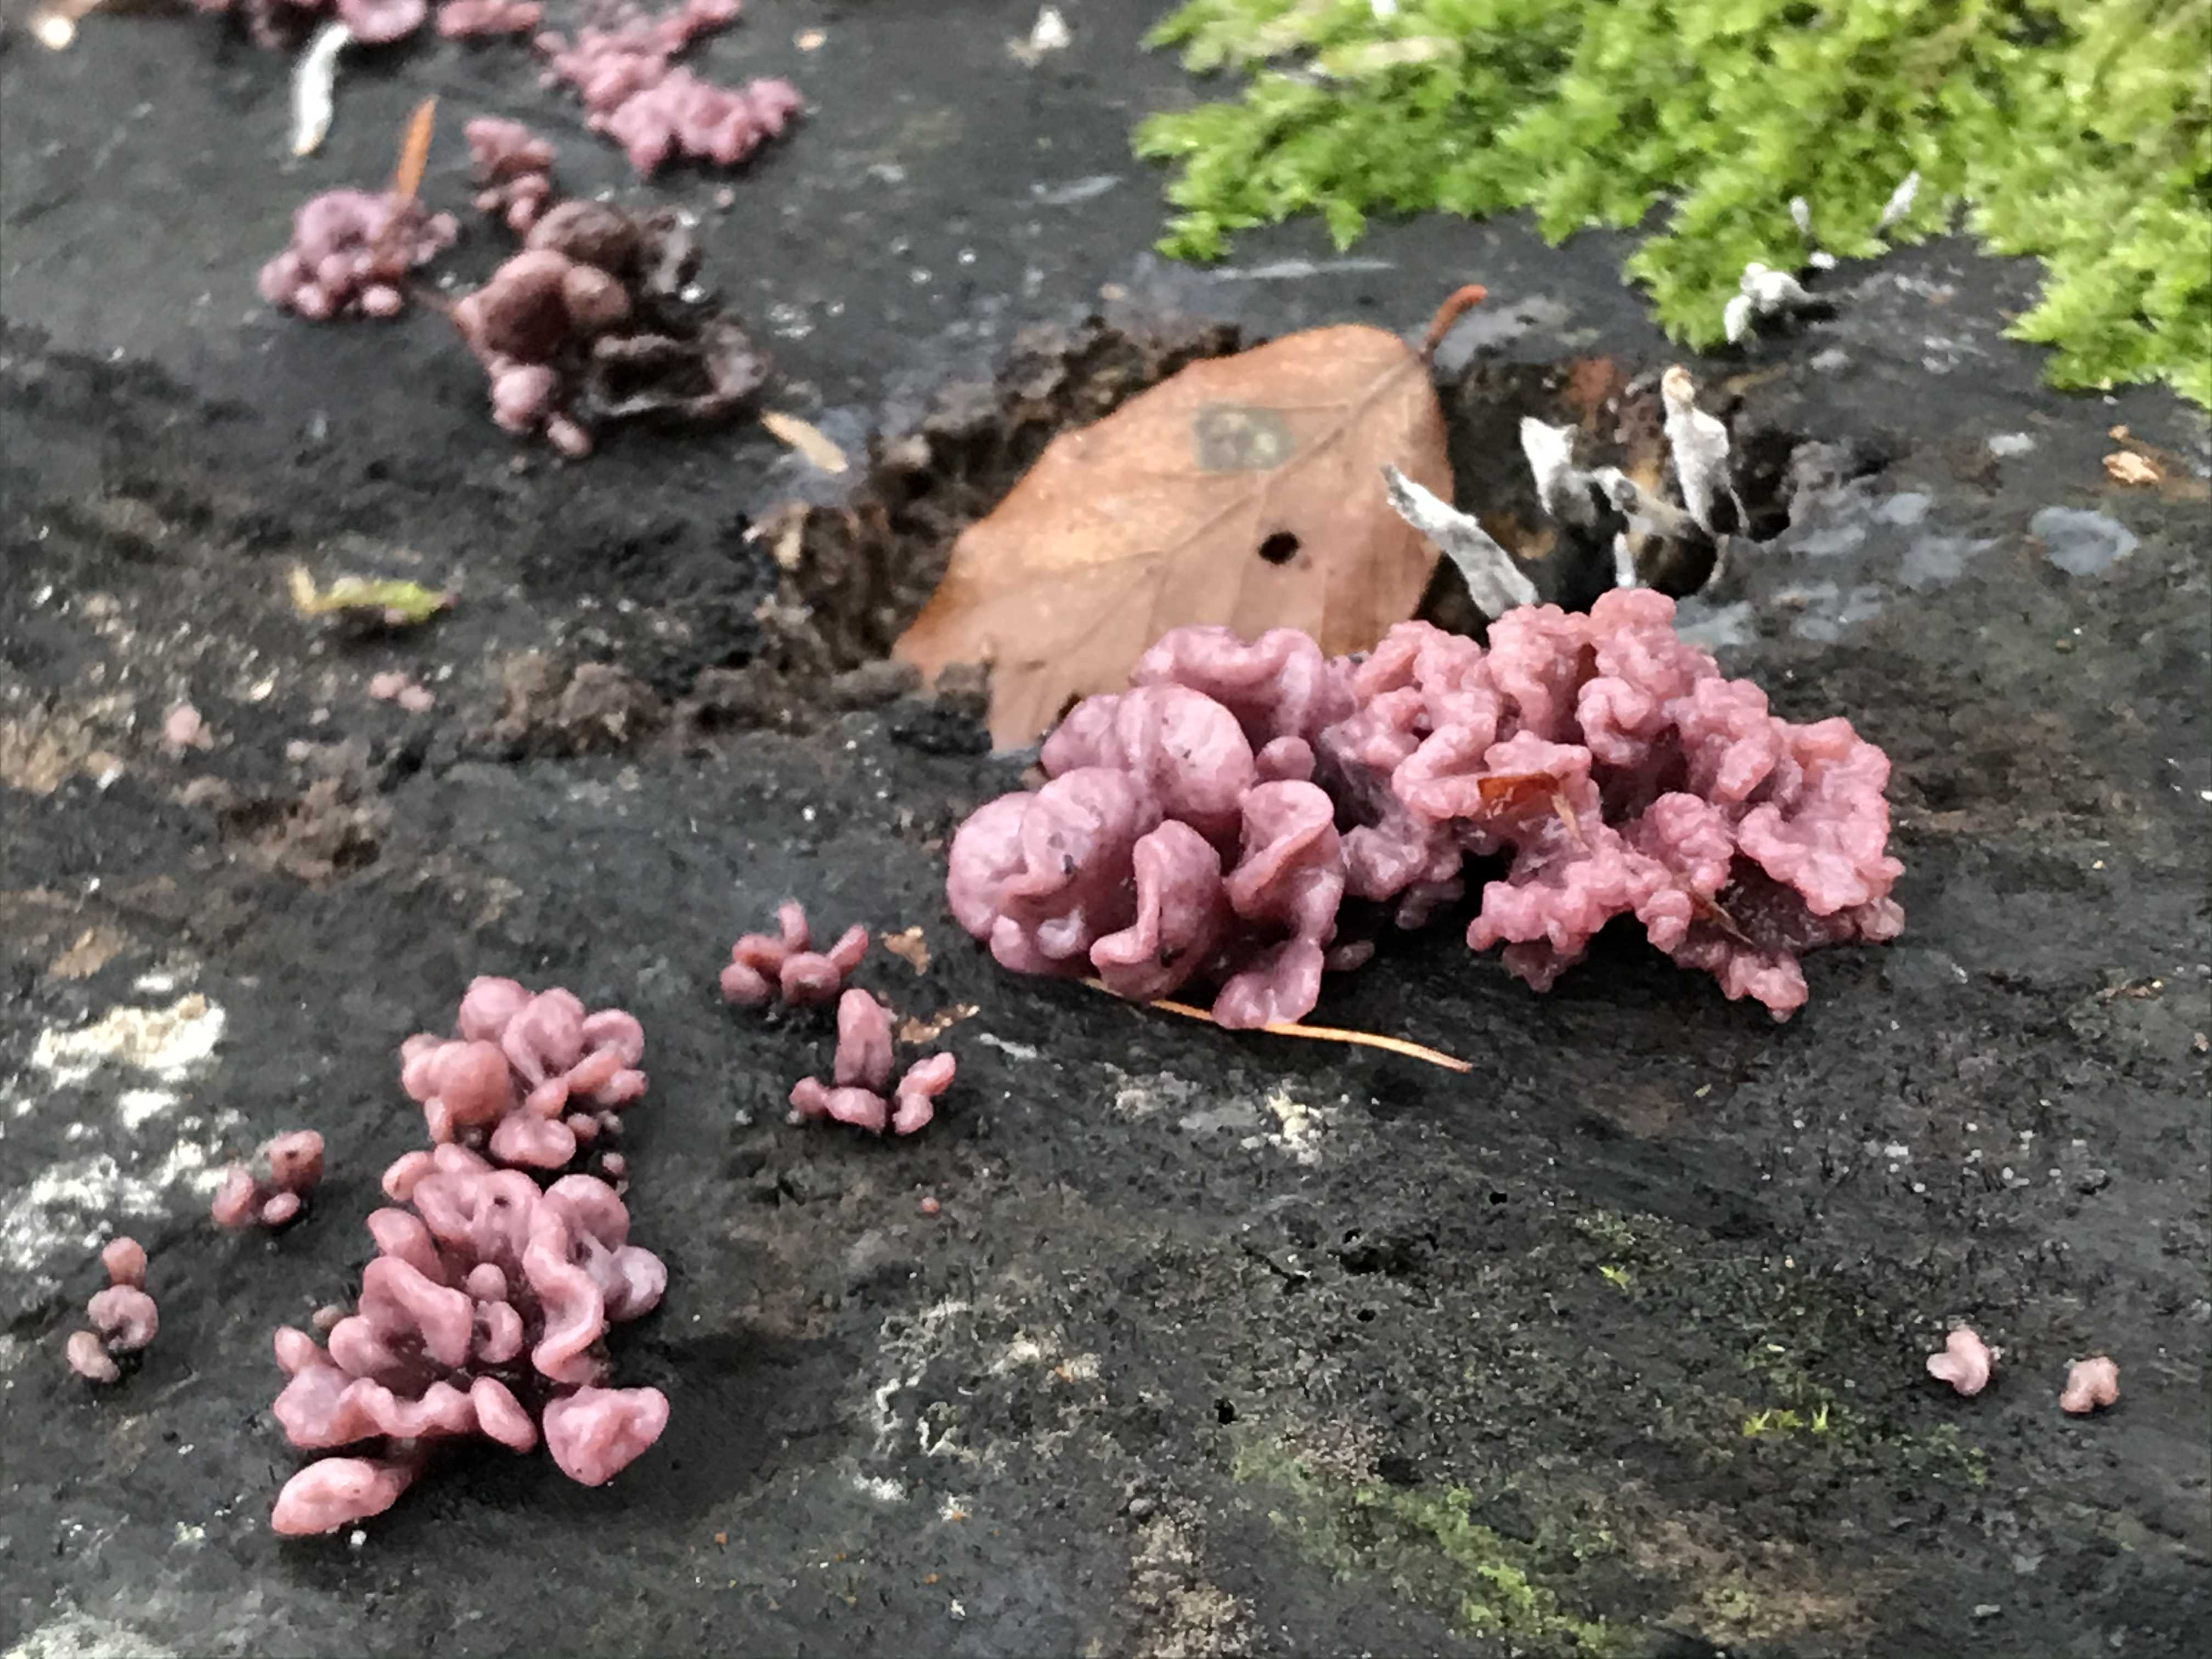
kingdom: Fungi
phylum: Ascomycota
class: Leotiomycetes
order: Helotiales
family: Gelatinodiscaceae
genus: Ascocoryne
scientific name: Ascocoryne sarcoides
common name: rødlilla sejskive
